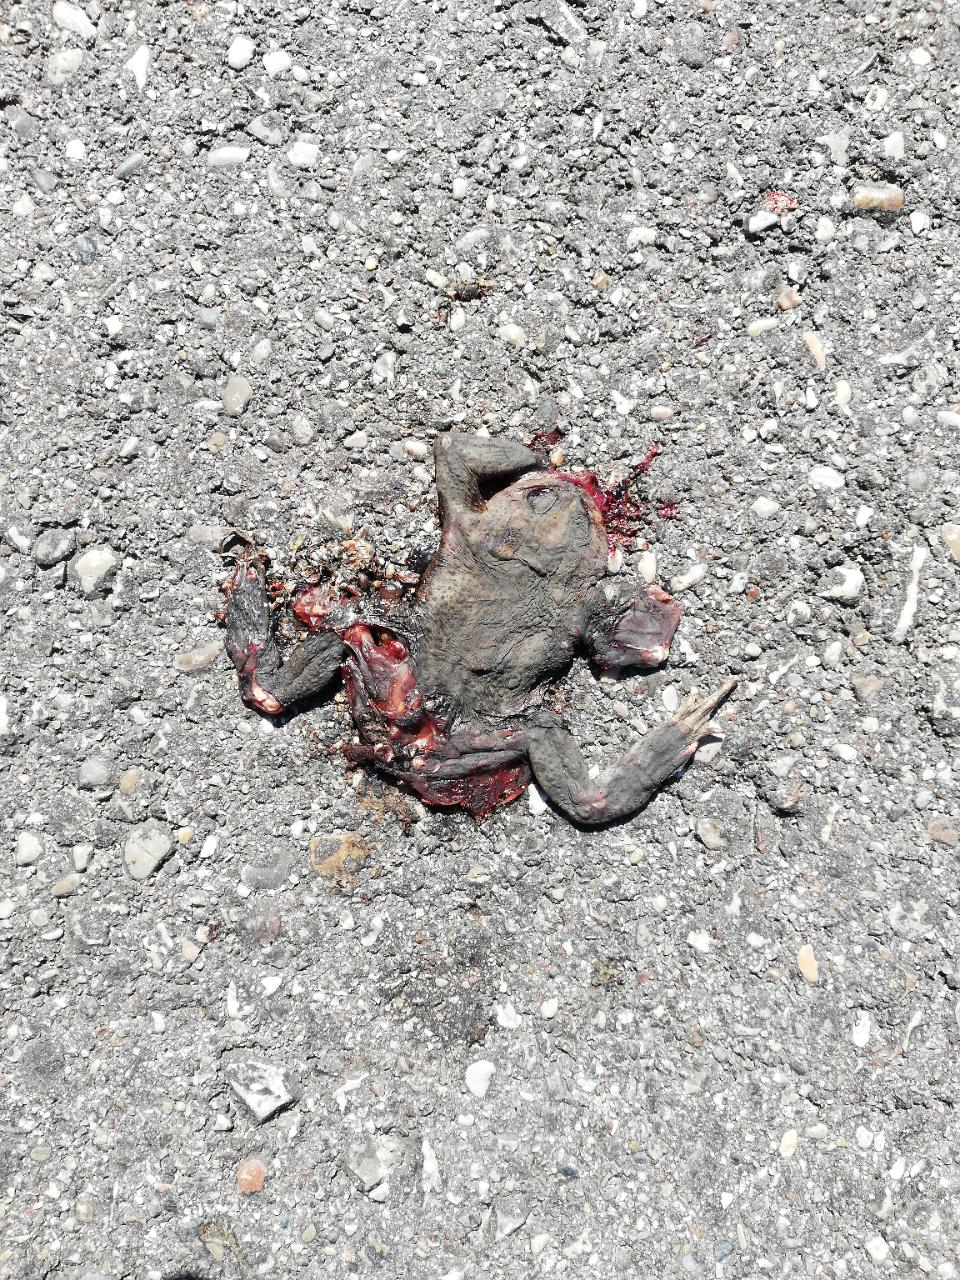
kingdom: Animalia
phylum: Chordata
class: Amphibia
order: Anura
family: Bufonidae
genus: Bufo
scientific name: Bufo bufo
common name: Common toad
